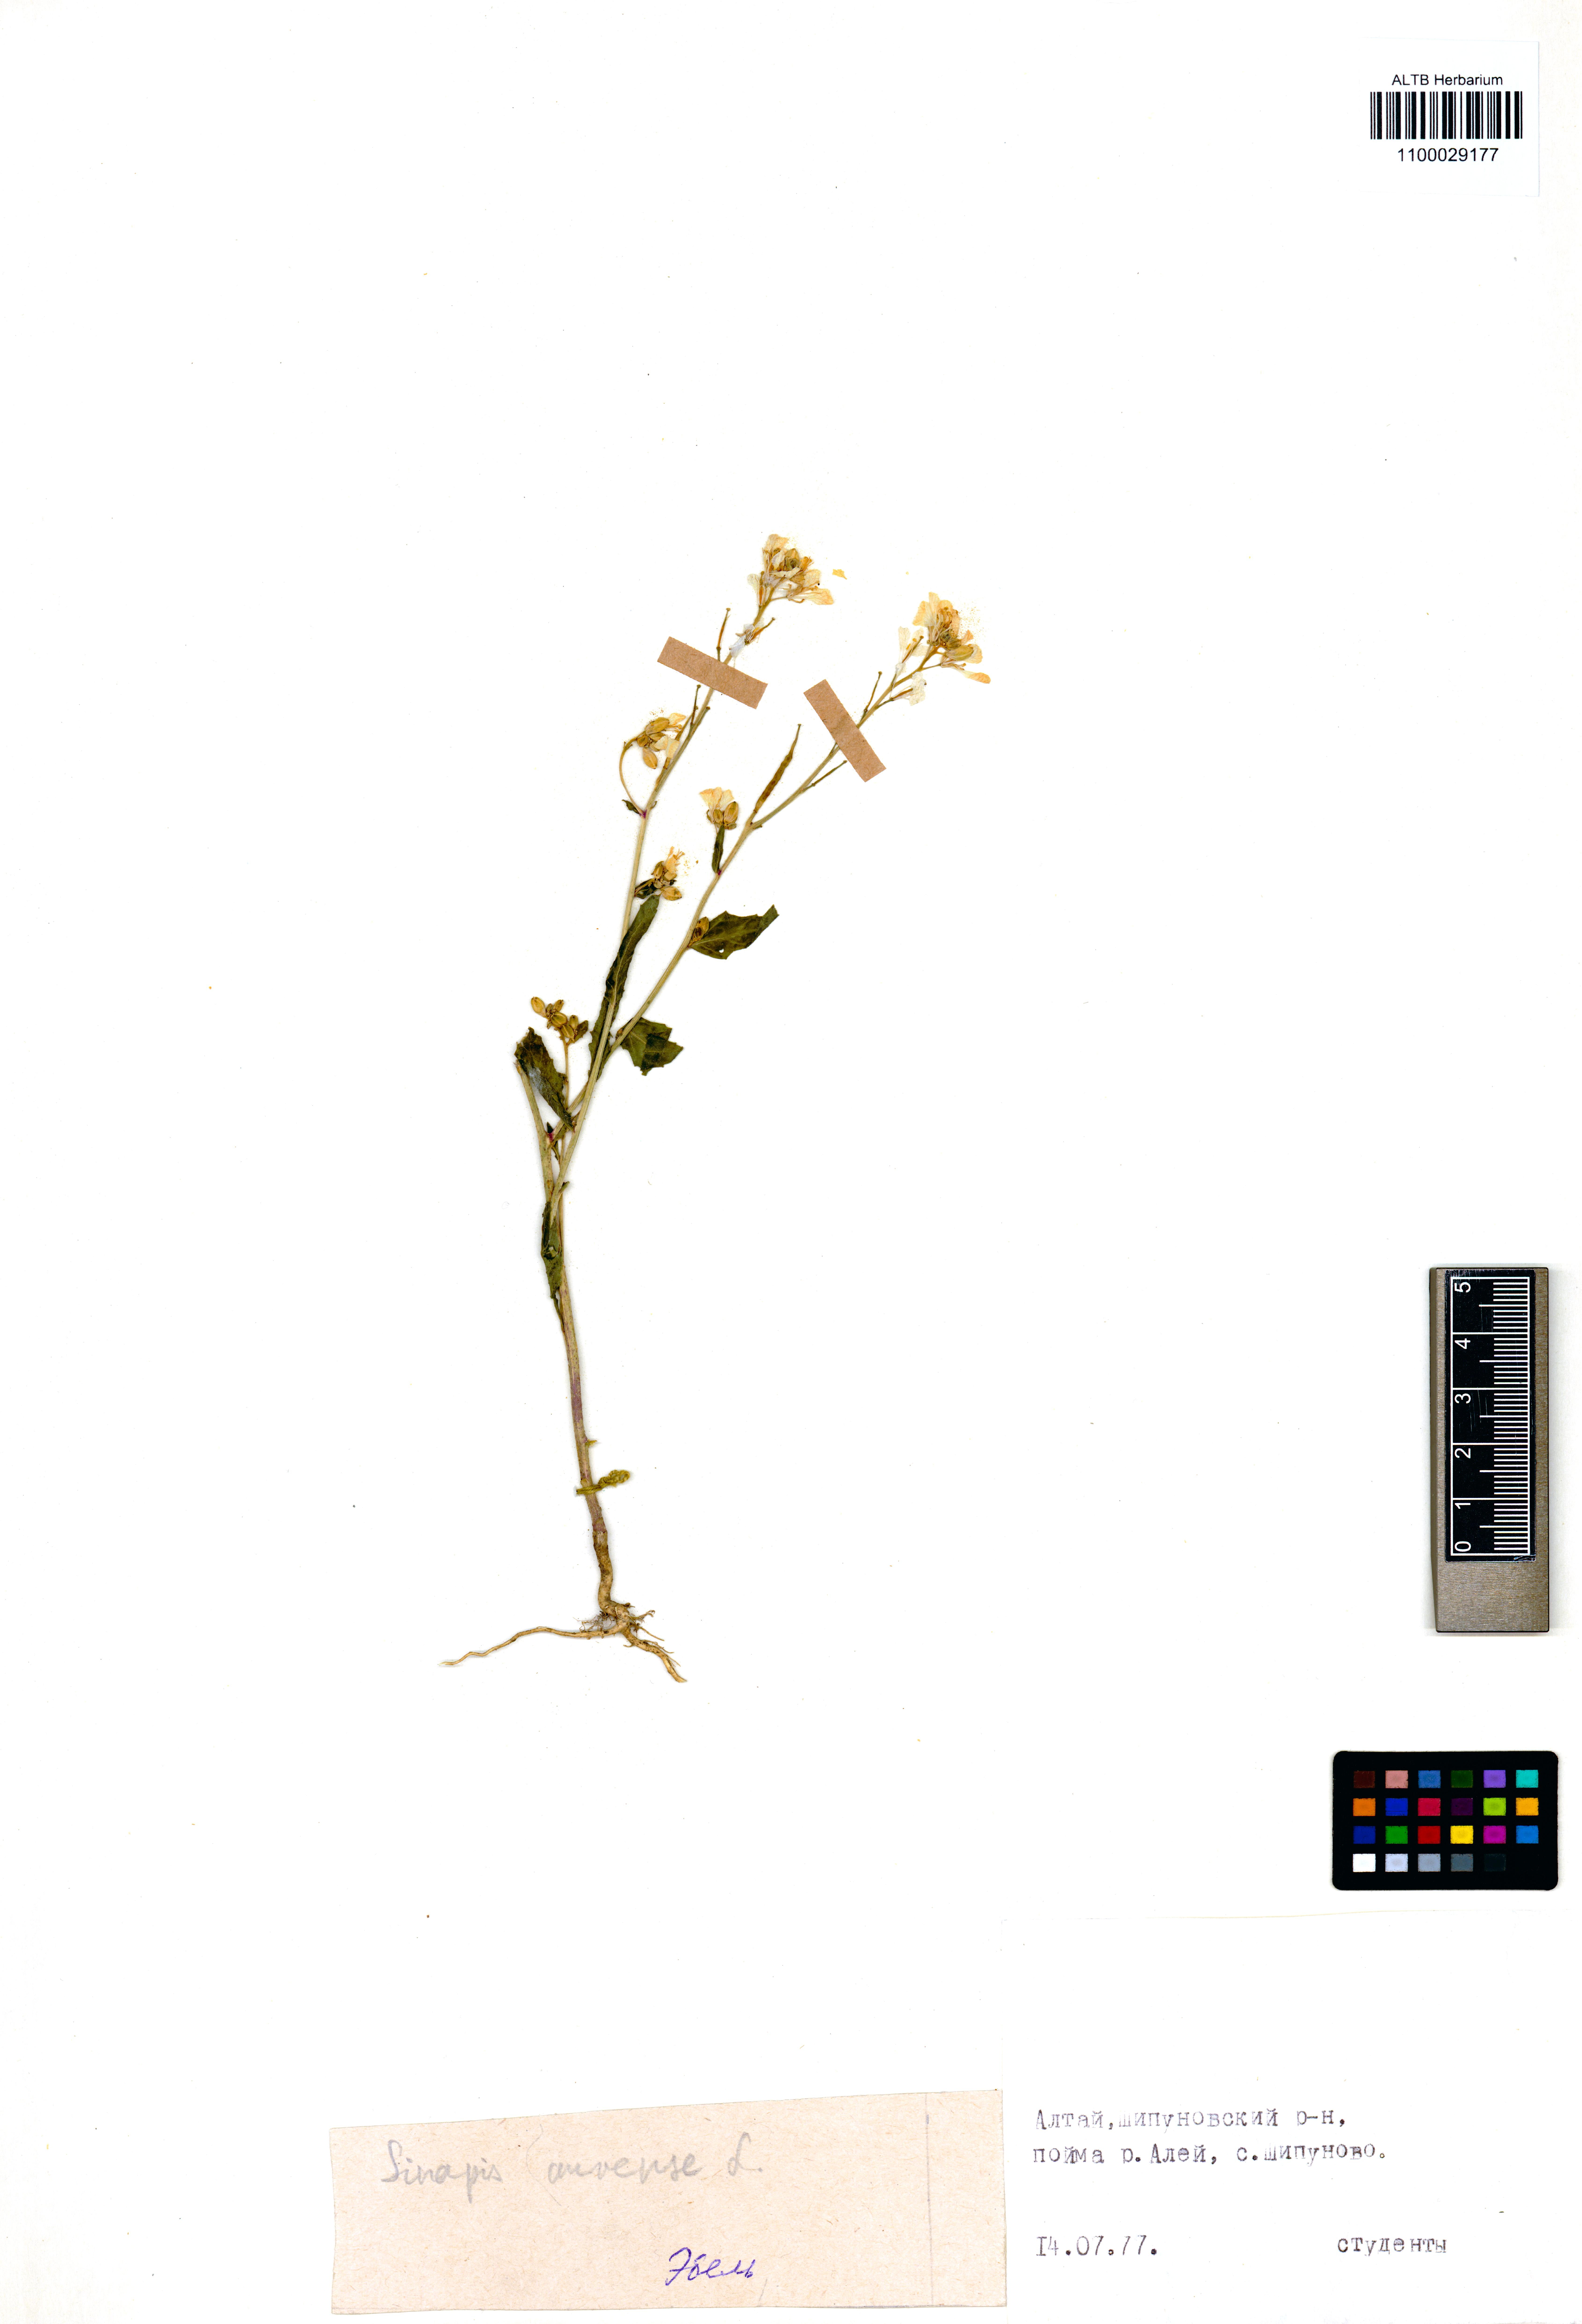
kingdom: Plantae
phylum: Tracheophyta
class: Magnoliopsida
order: Brassicales
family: Brassicaceae
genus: Sinapis
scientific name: Sinapis arvensis
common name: Charlock
